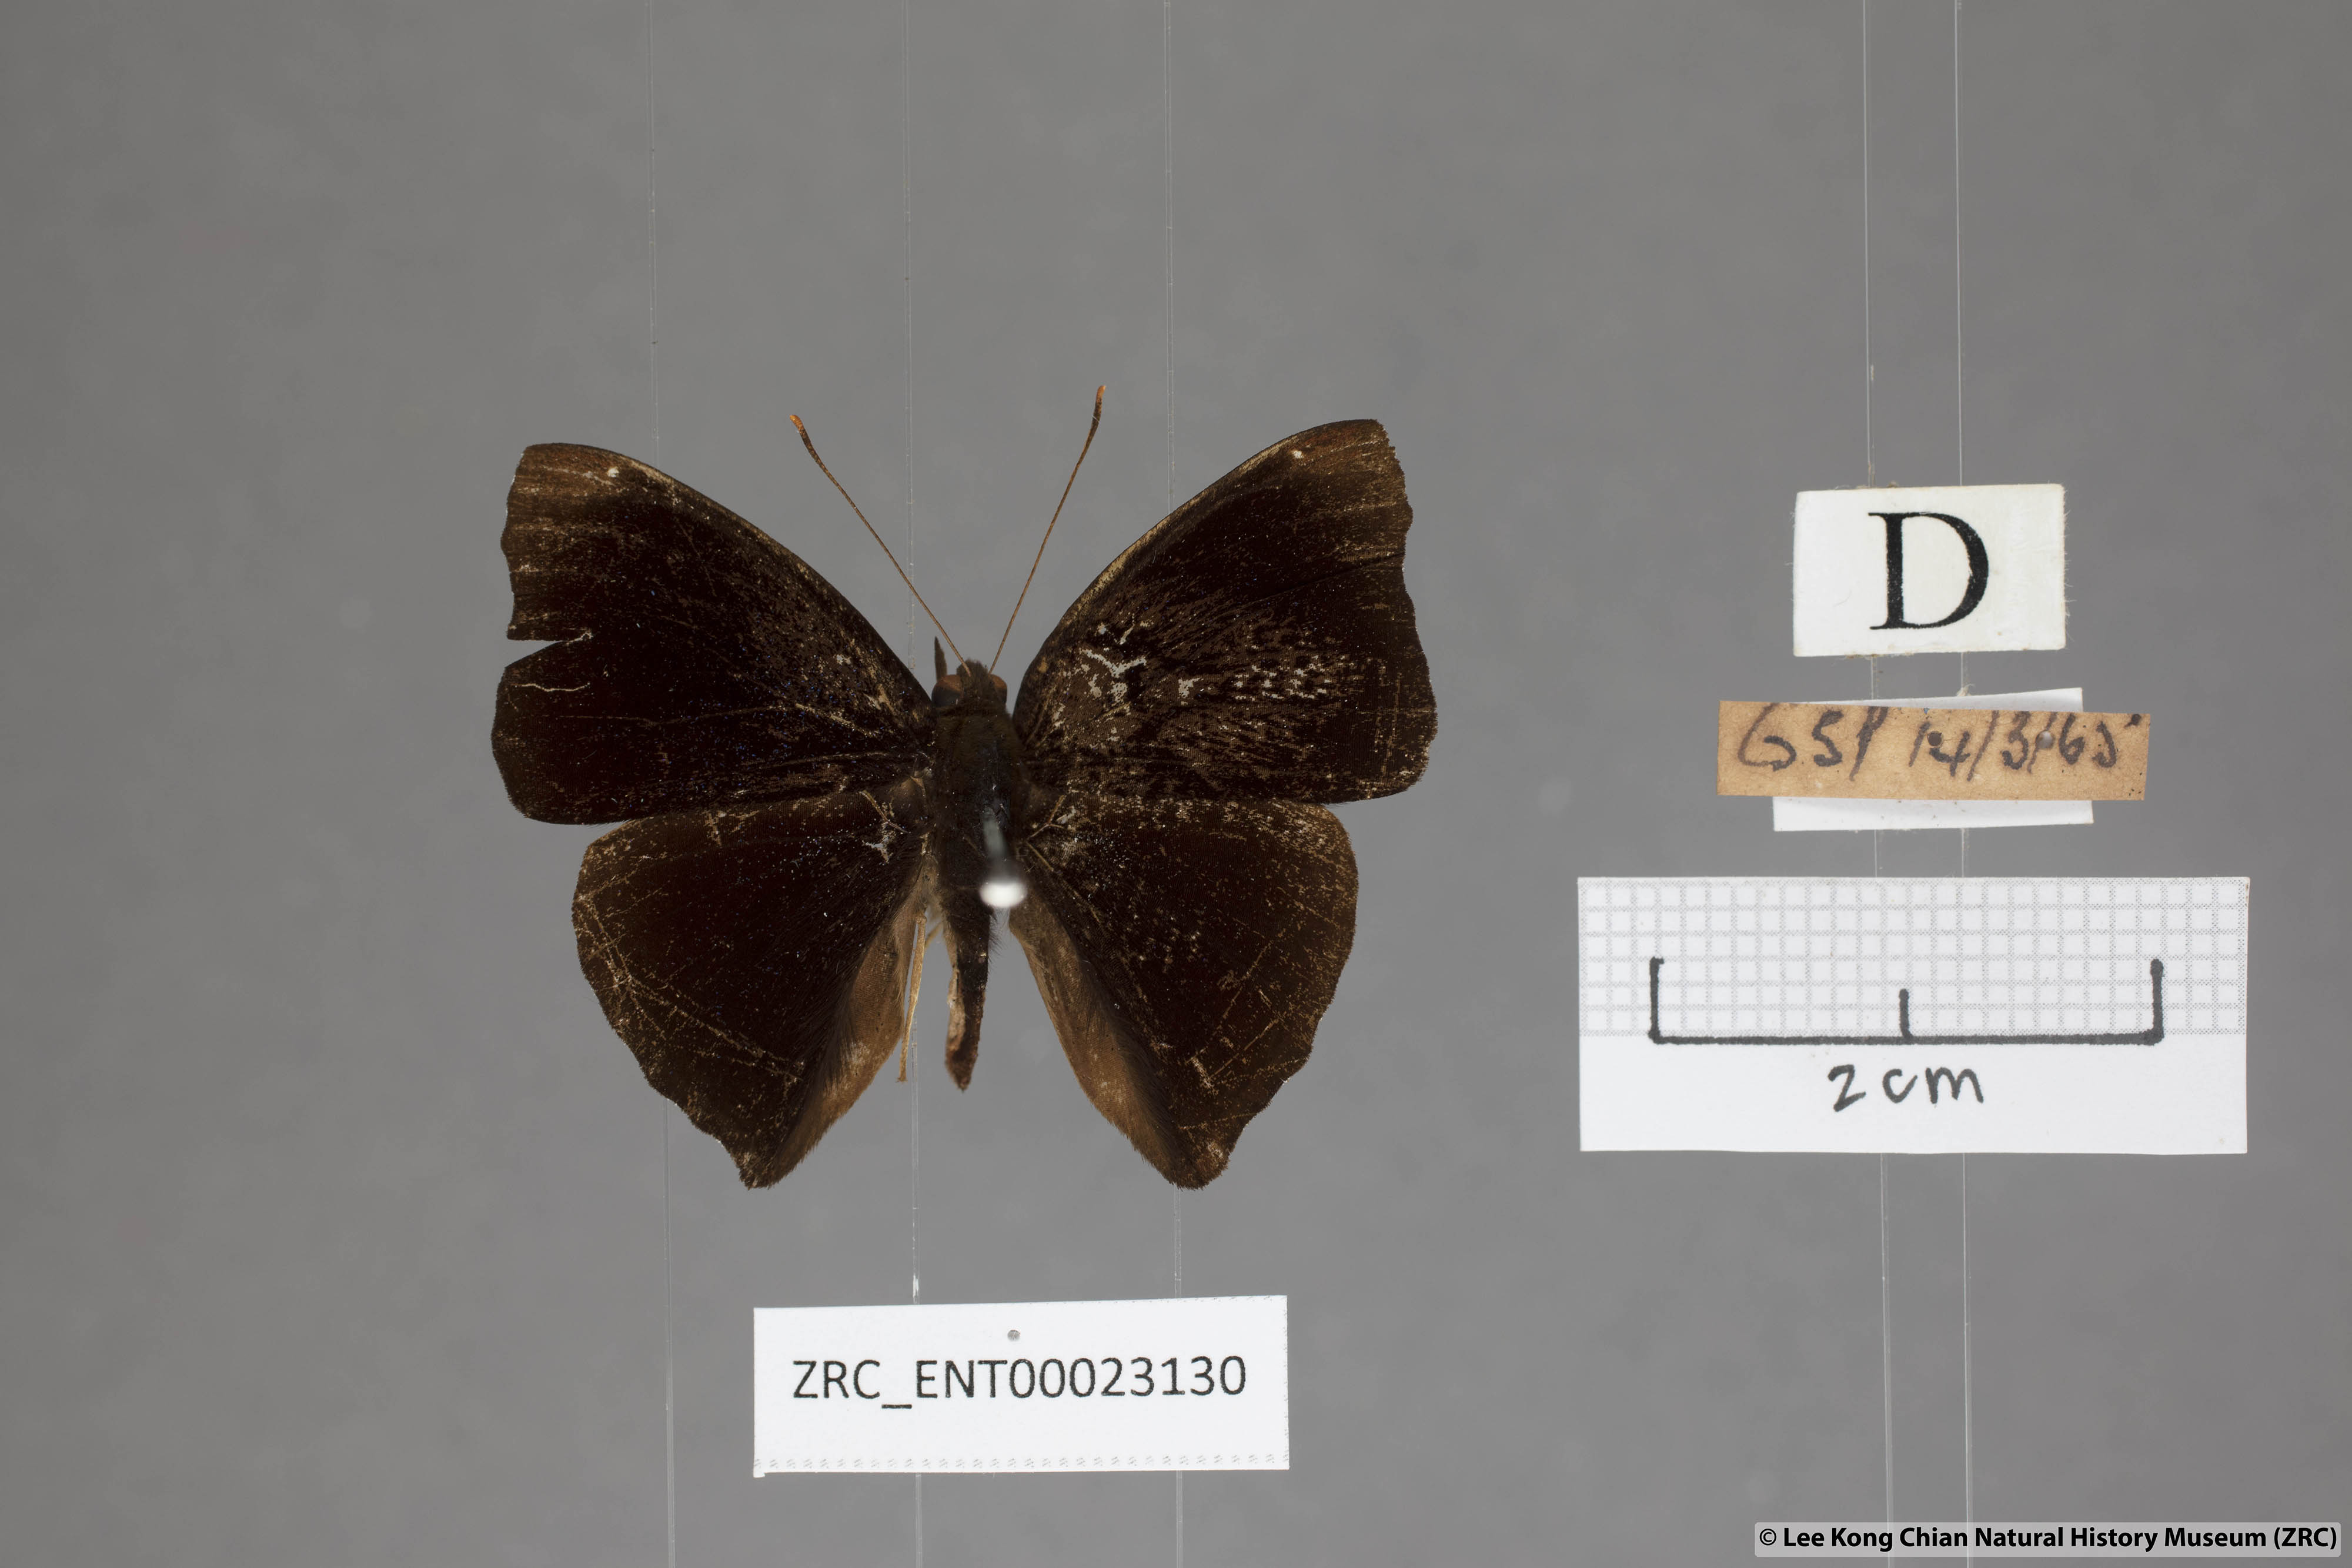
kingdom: Animalia
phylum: Arthropoda
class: Insecta
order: Lepidoptera
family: Nymphalidae
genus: Apatura
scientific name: Apatura Rohana spec
